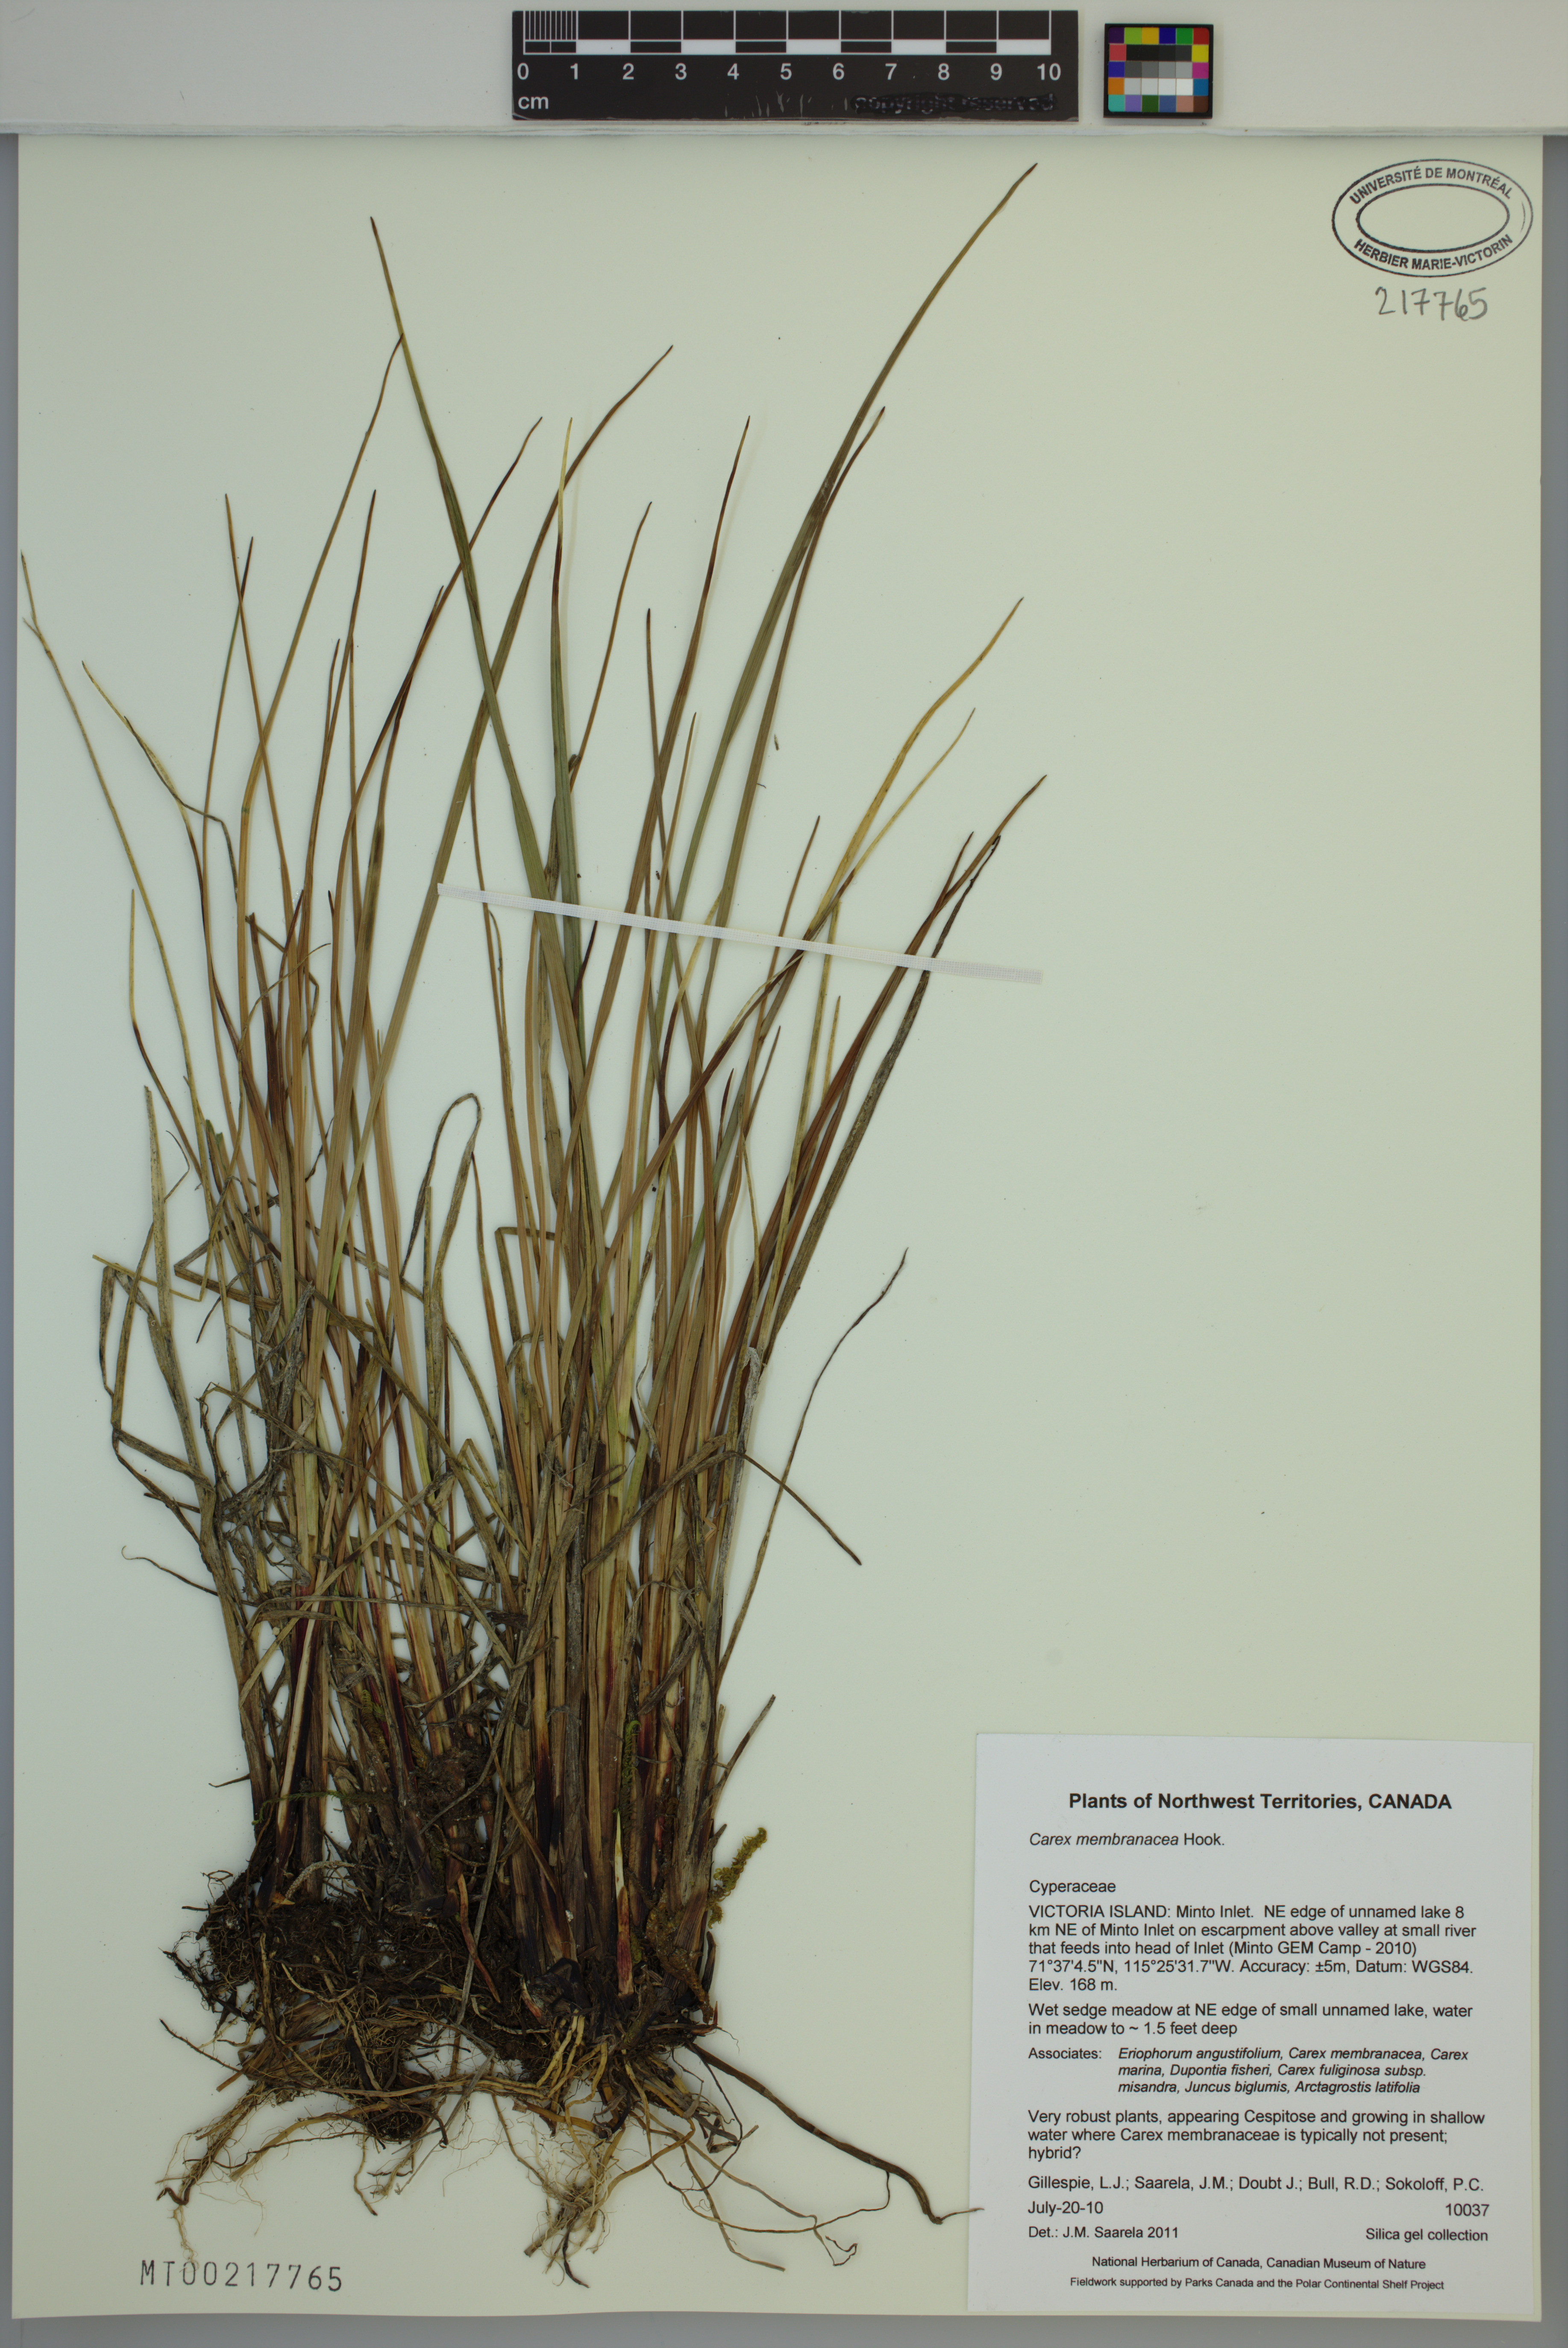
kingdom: Plantae
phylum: Tracheophyta
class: Liliopsida
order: Poales
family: Cyperaceae
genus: Carex
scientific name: Carex membranacea
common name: Fragile sedge
